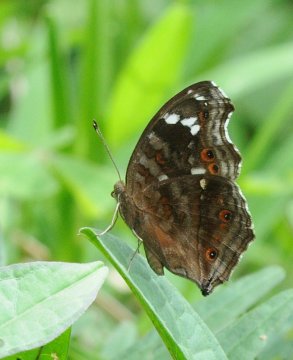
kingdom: Animalia
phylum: Arthropoda
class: Insecta
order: Lepidoptera
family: Nymphalidae
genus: Junonia
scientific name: Junonia natalica
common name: Natal Pansy
